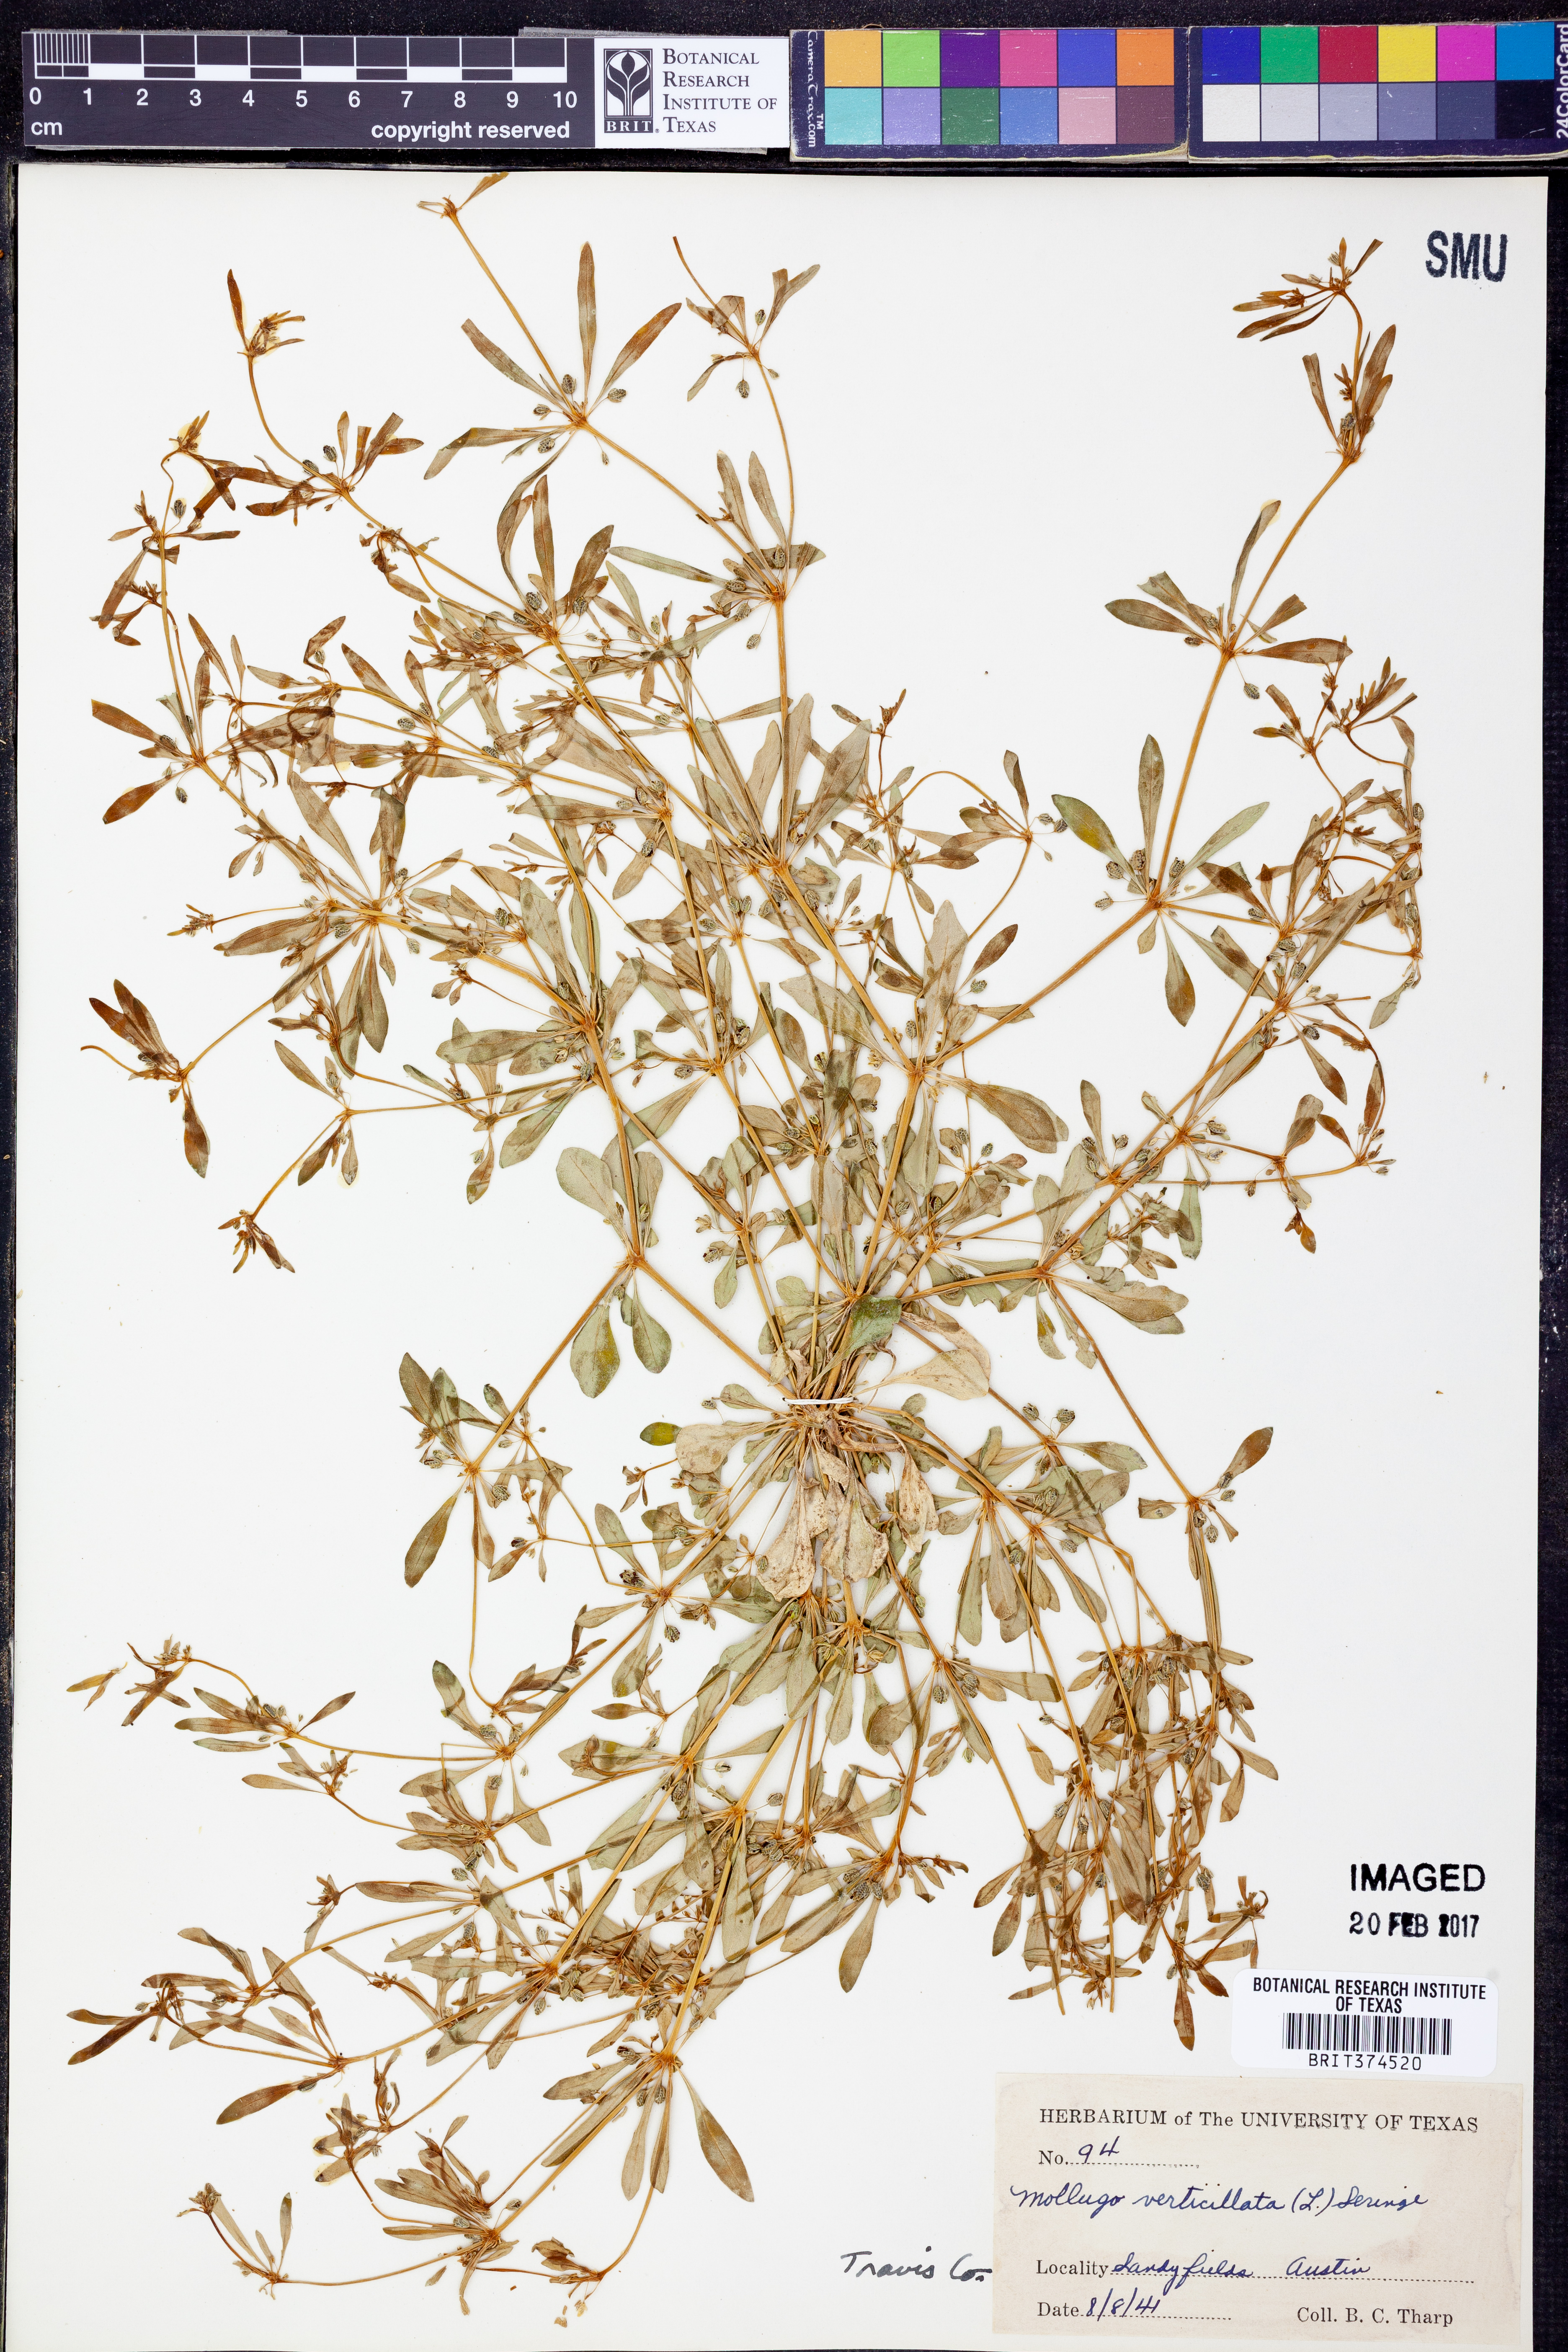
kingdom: Plantae
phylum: Tracheophyta
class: Magnoliopsida
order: Caryophyllales
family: Molluginaceae
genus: Mollugo
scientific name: Mollugo verticillata
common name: Green carpetweed
